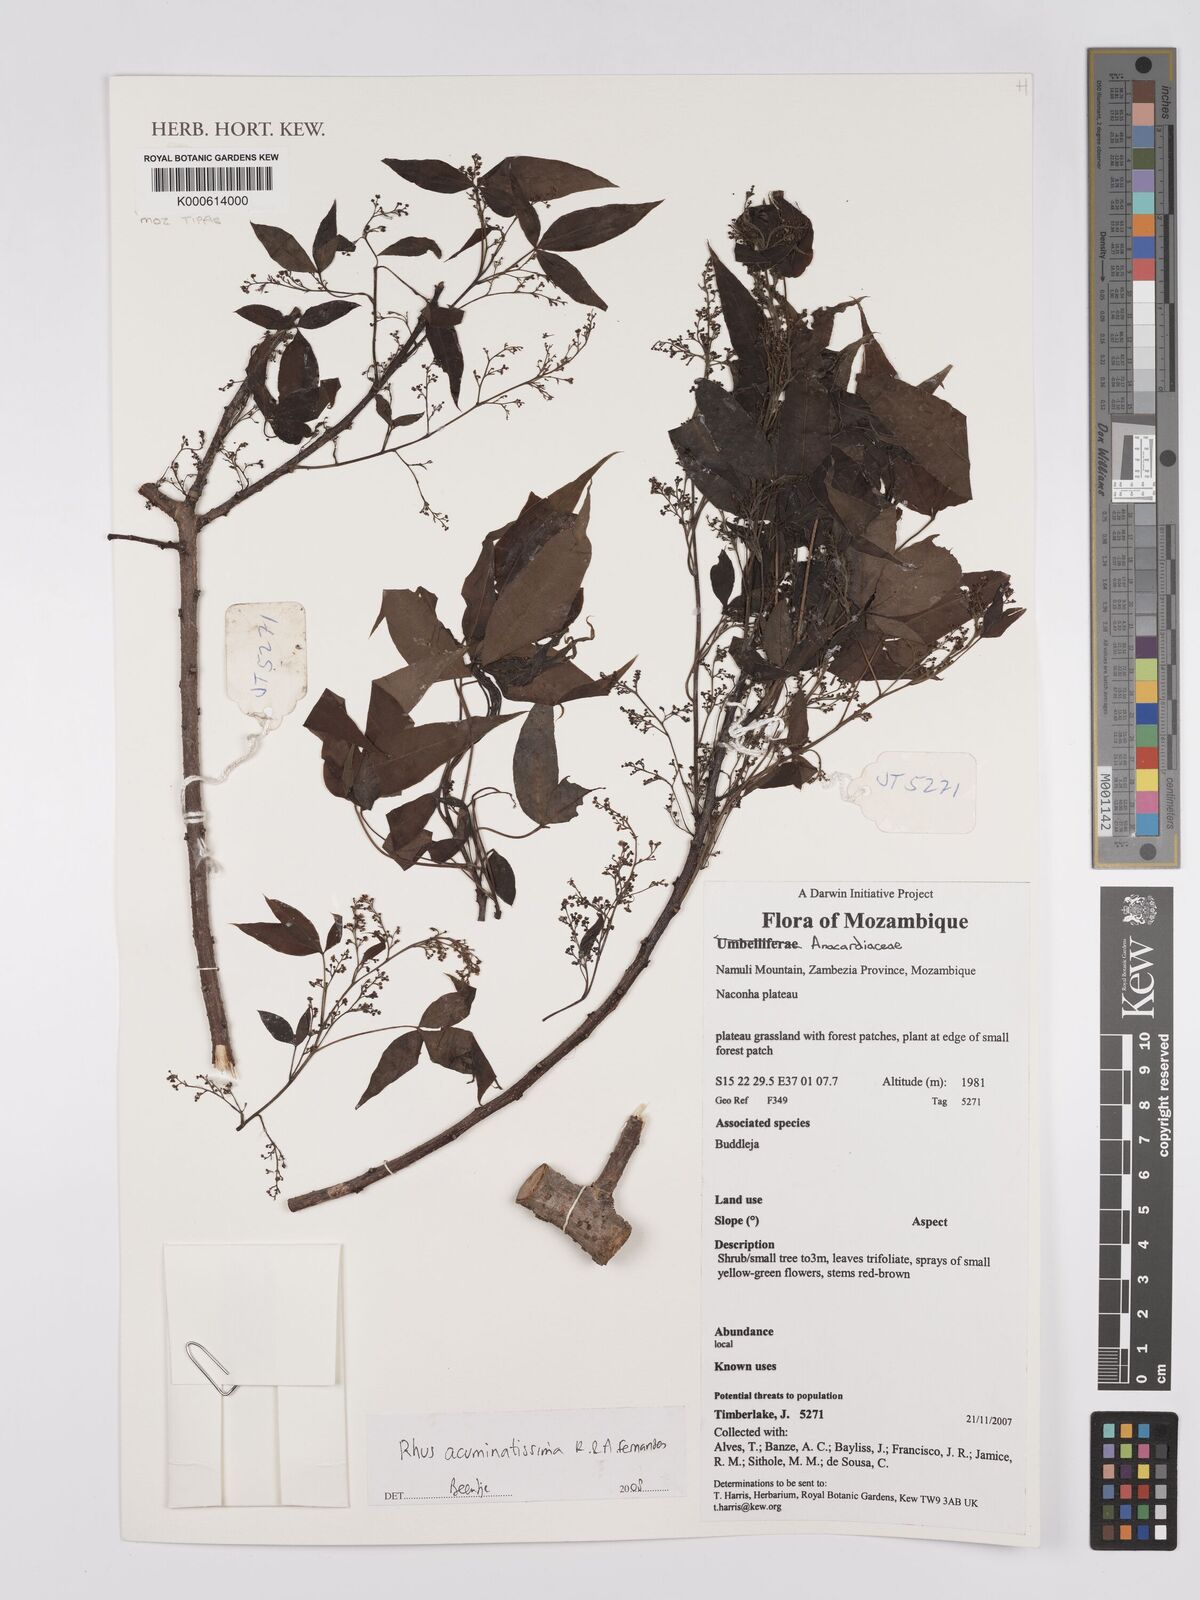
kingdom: Plantae
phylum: Tracheophyta
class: Magnoliopsida
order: Sapindales
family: Anacardiaceae
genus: Searsia
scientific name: Searsia acuminatissima
